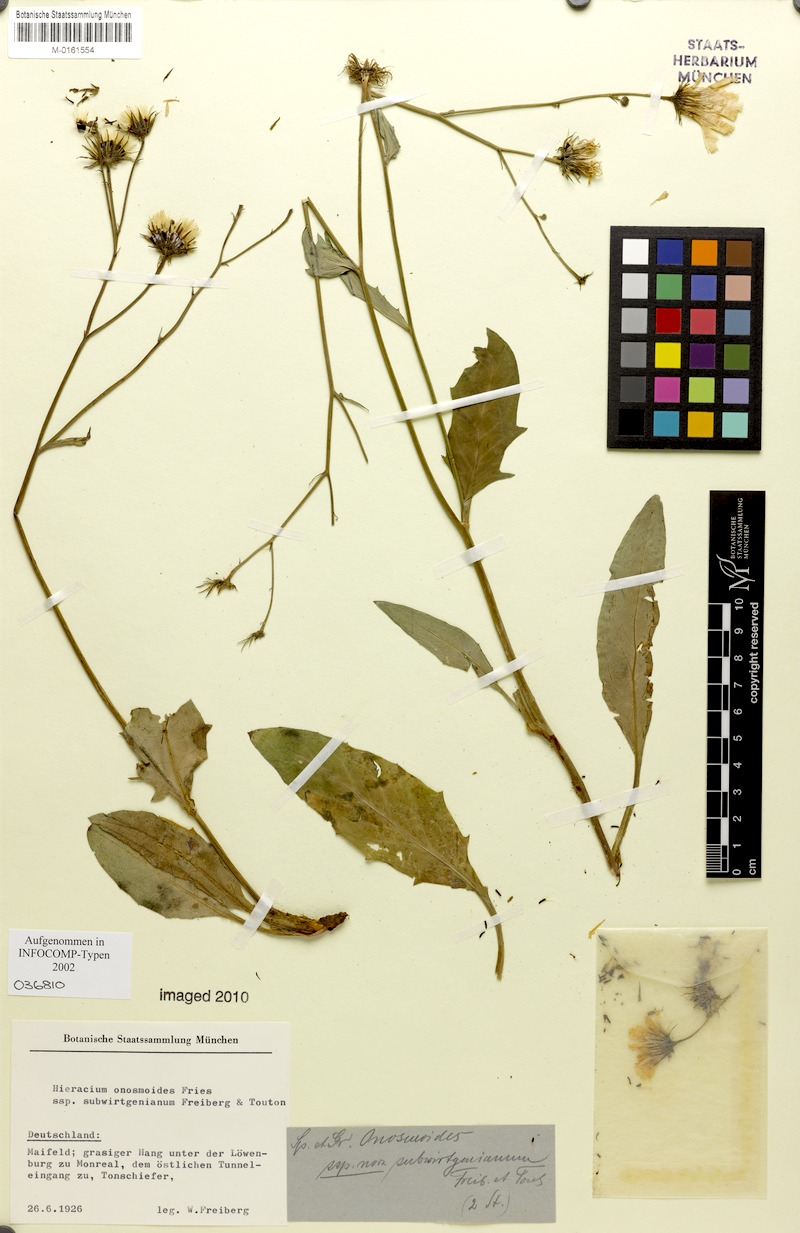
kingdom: Plantae
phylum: Tracheophyta
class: Magnoliopsida
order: Asterales
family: Asteraceae
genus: Hieracium
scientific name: Hieracium onosmoides
